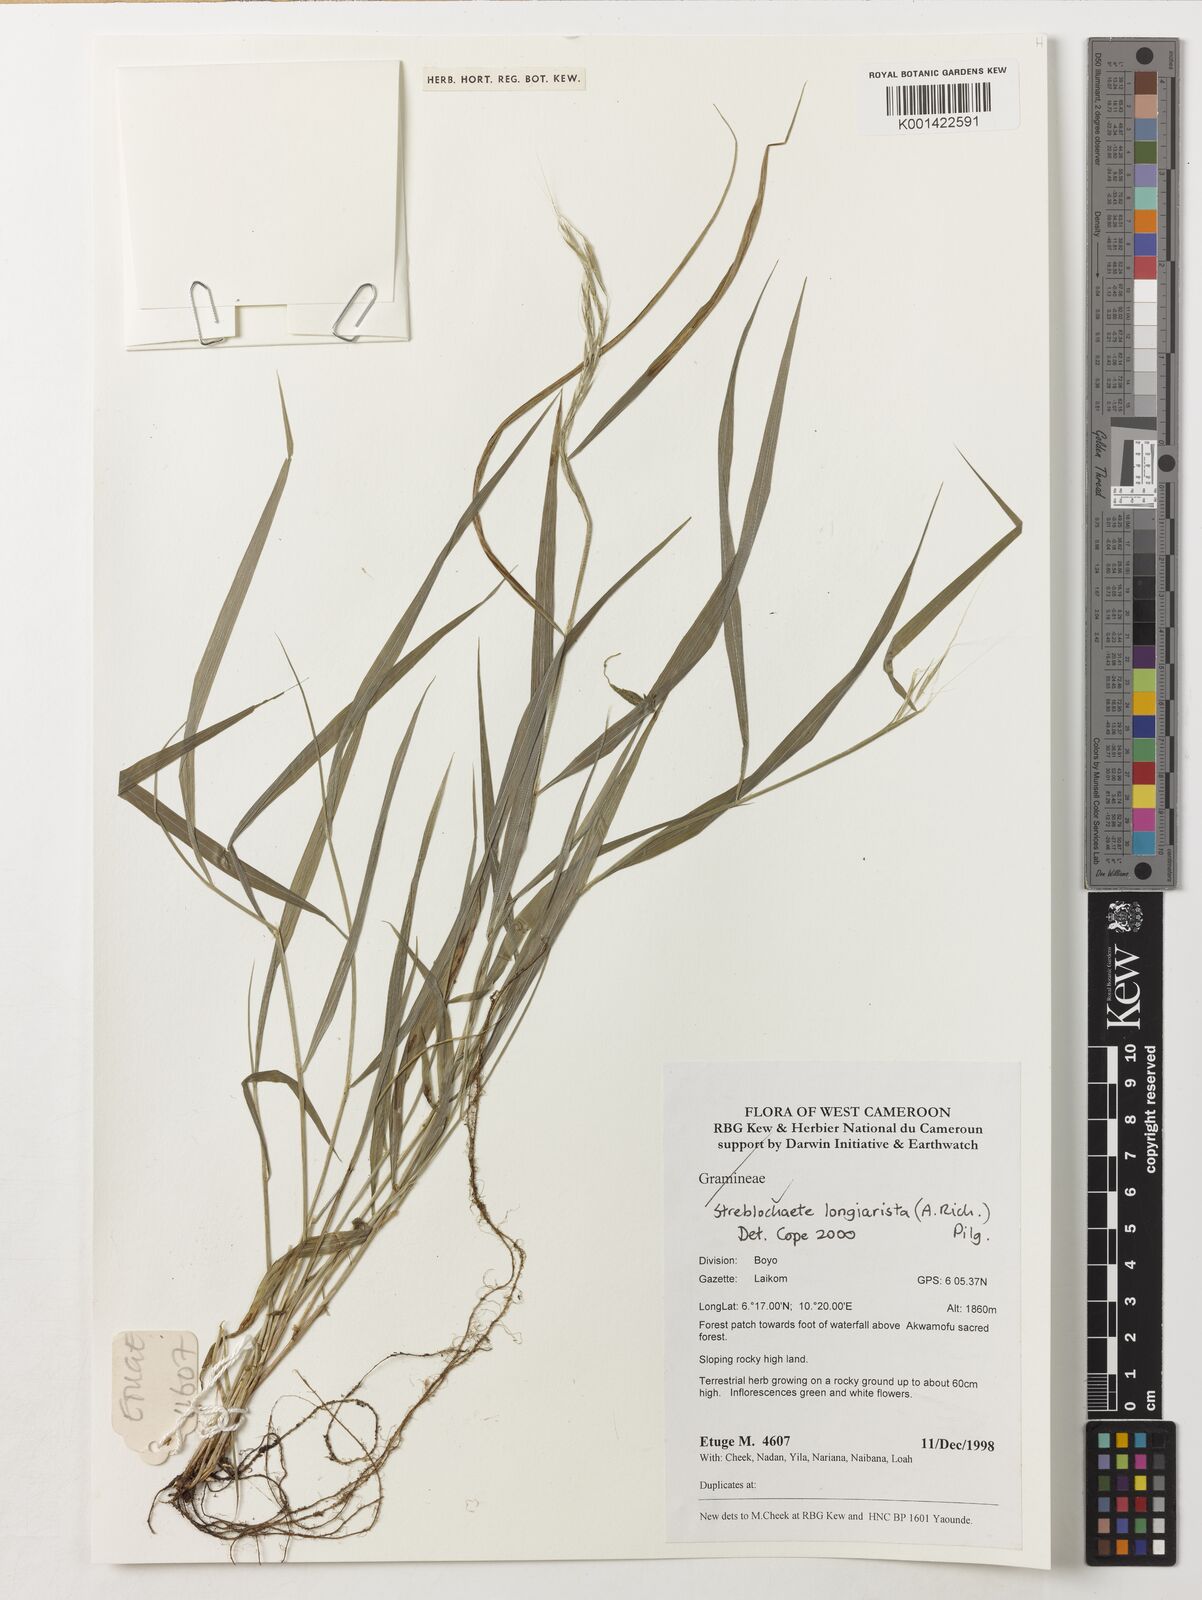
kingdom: Plantae
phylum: Tracheophyta
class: Liliopsida
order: Poales
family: Poaceae
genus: Koordersiochloa
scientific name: Koordersiochloa longiarista
